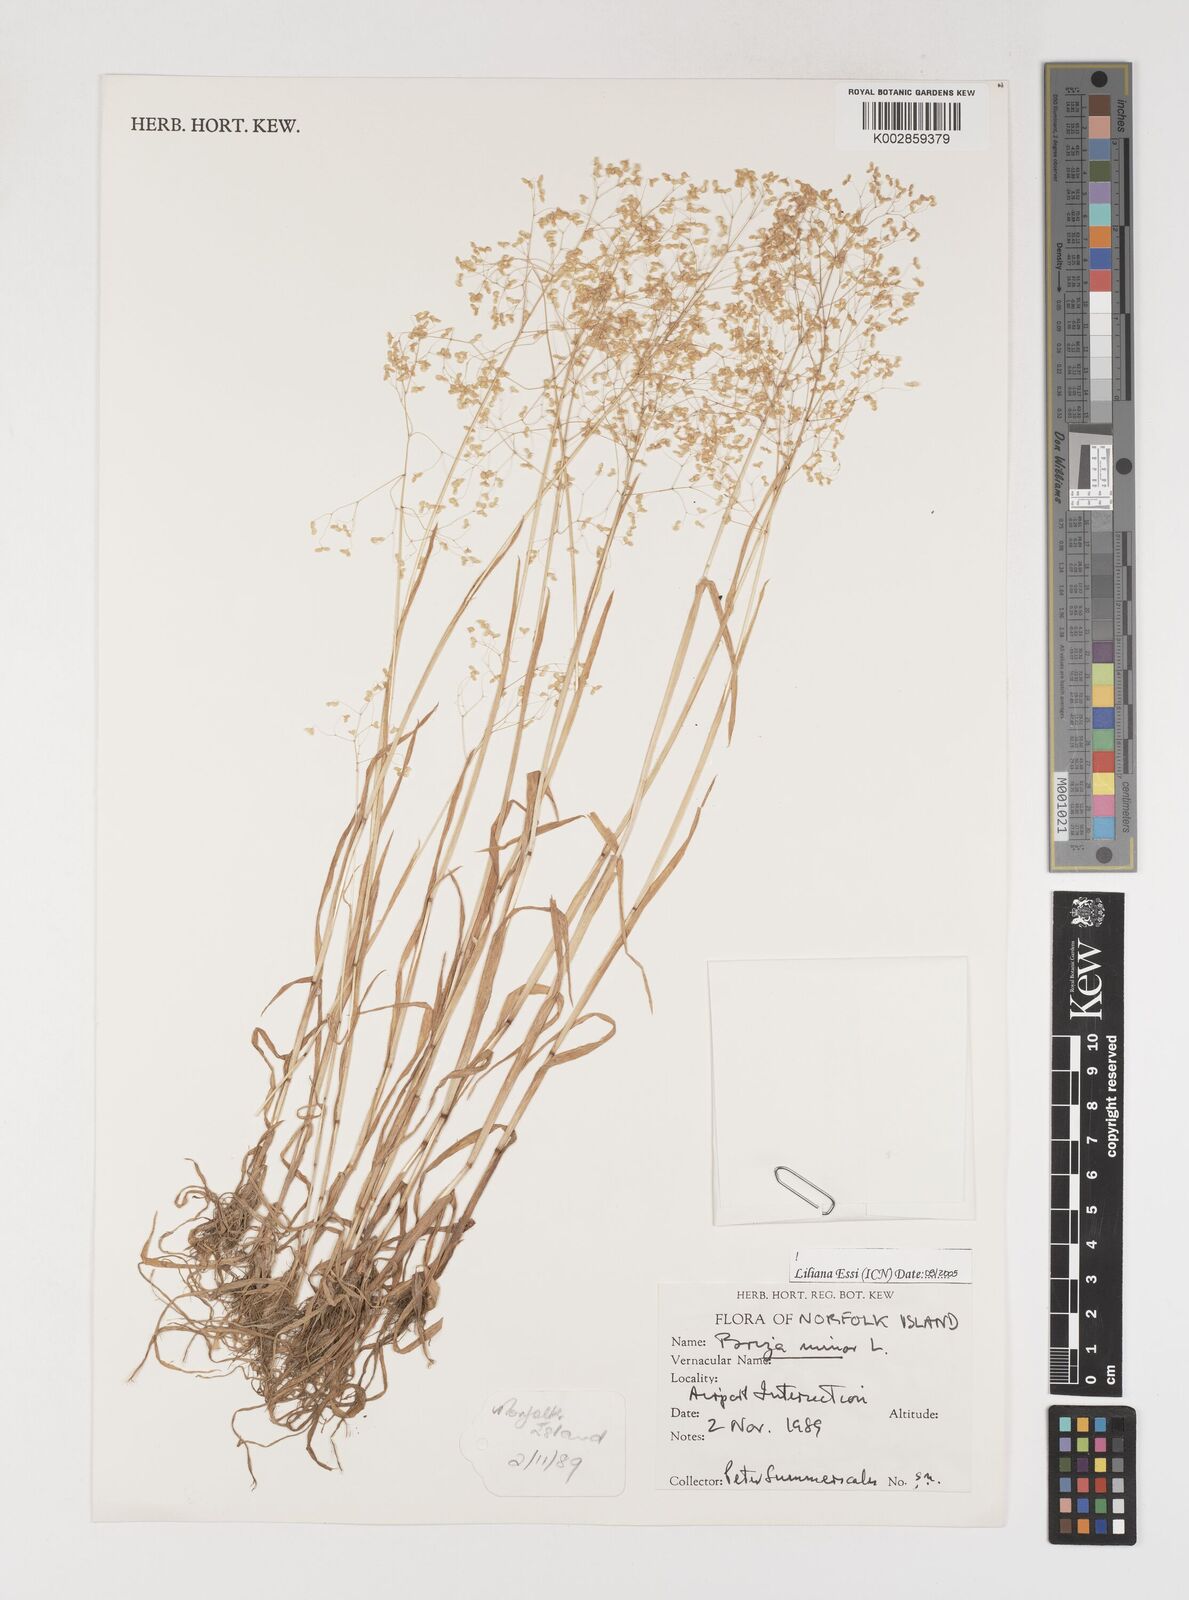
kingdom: Plantae
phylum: Tracheophyta
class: Liliopsida
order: Poales
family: Poaceae
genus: Briza
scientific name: Briza minor
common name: Lesser quaking-grass
